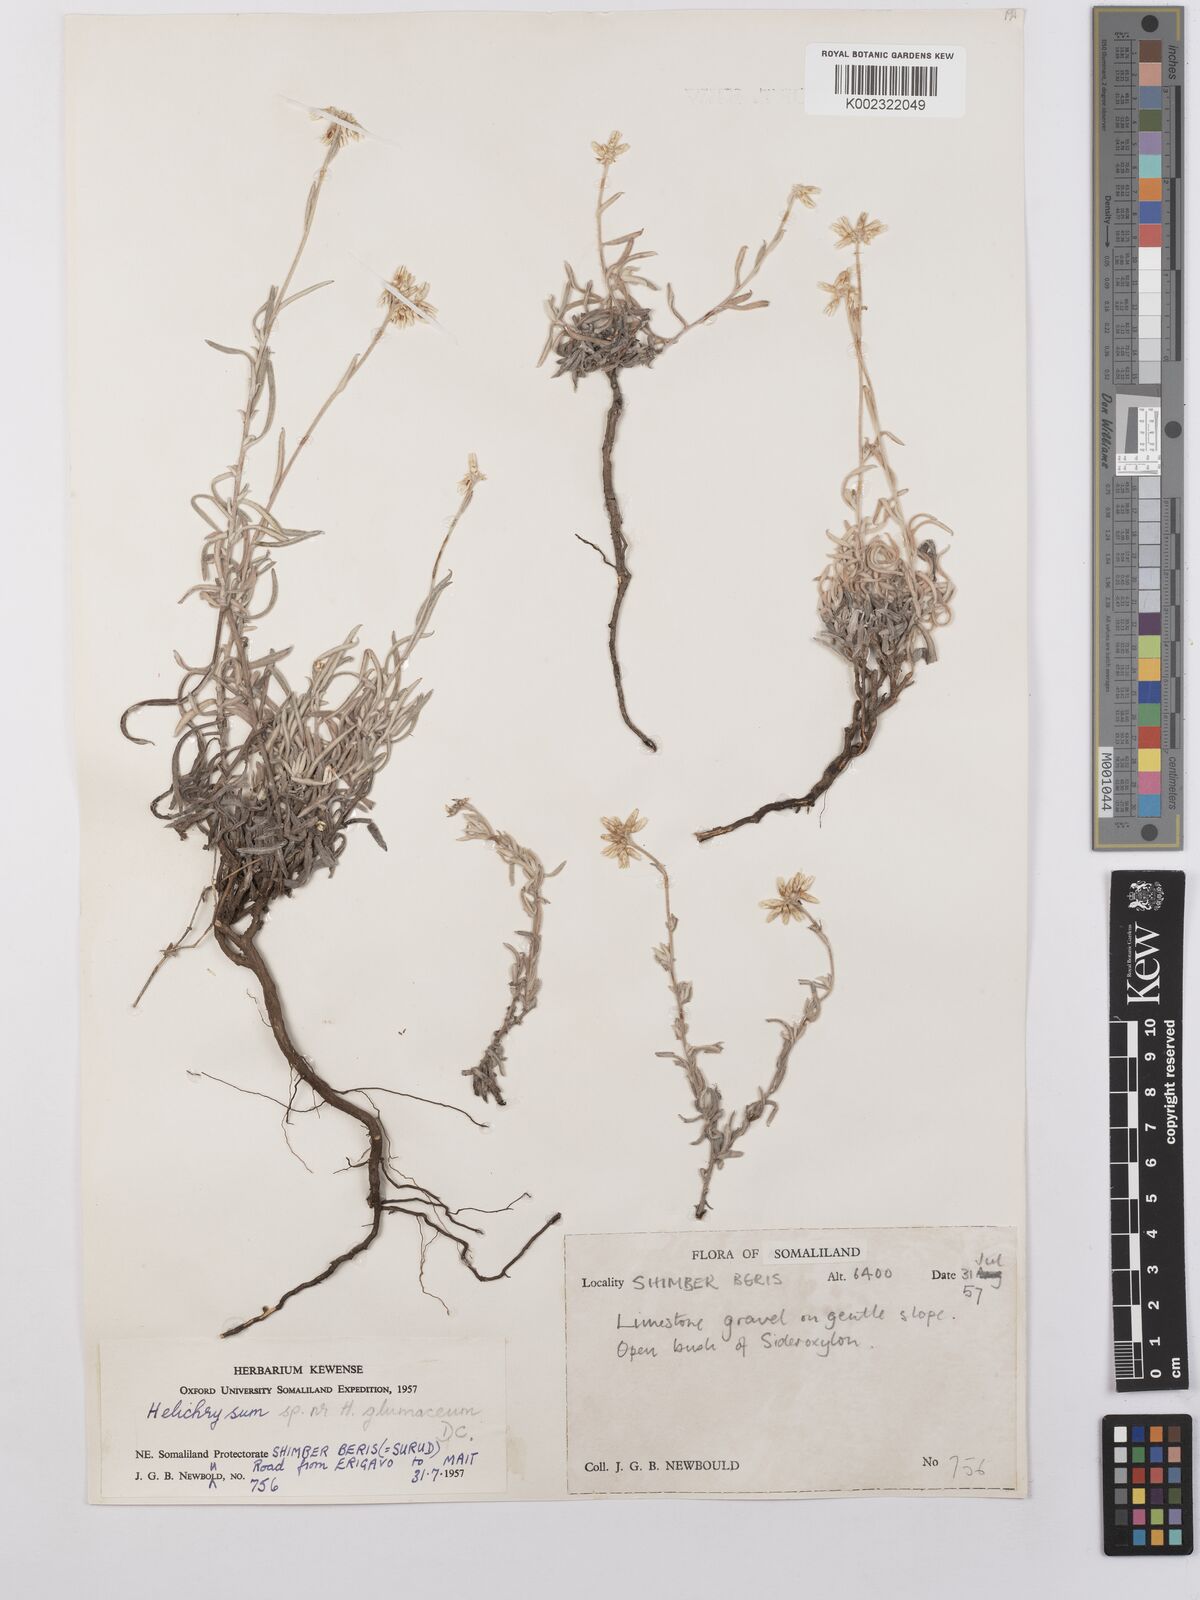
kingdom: Plantae
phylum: Tracheophyta
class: Magnoliopsida
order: Asterales
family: Asteraceae
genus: Helichrysum
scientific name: Helichrysum glumaceum
